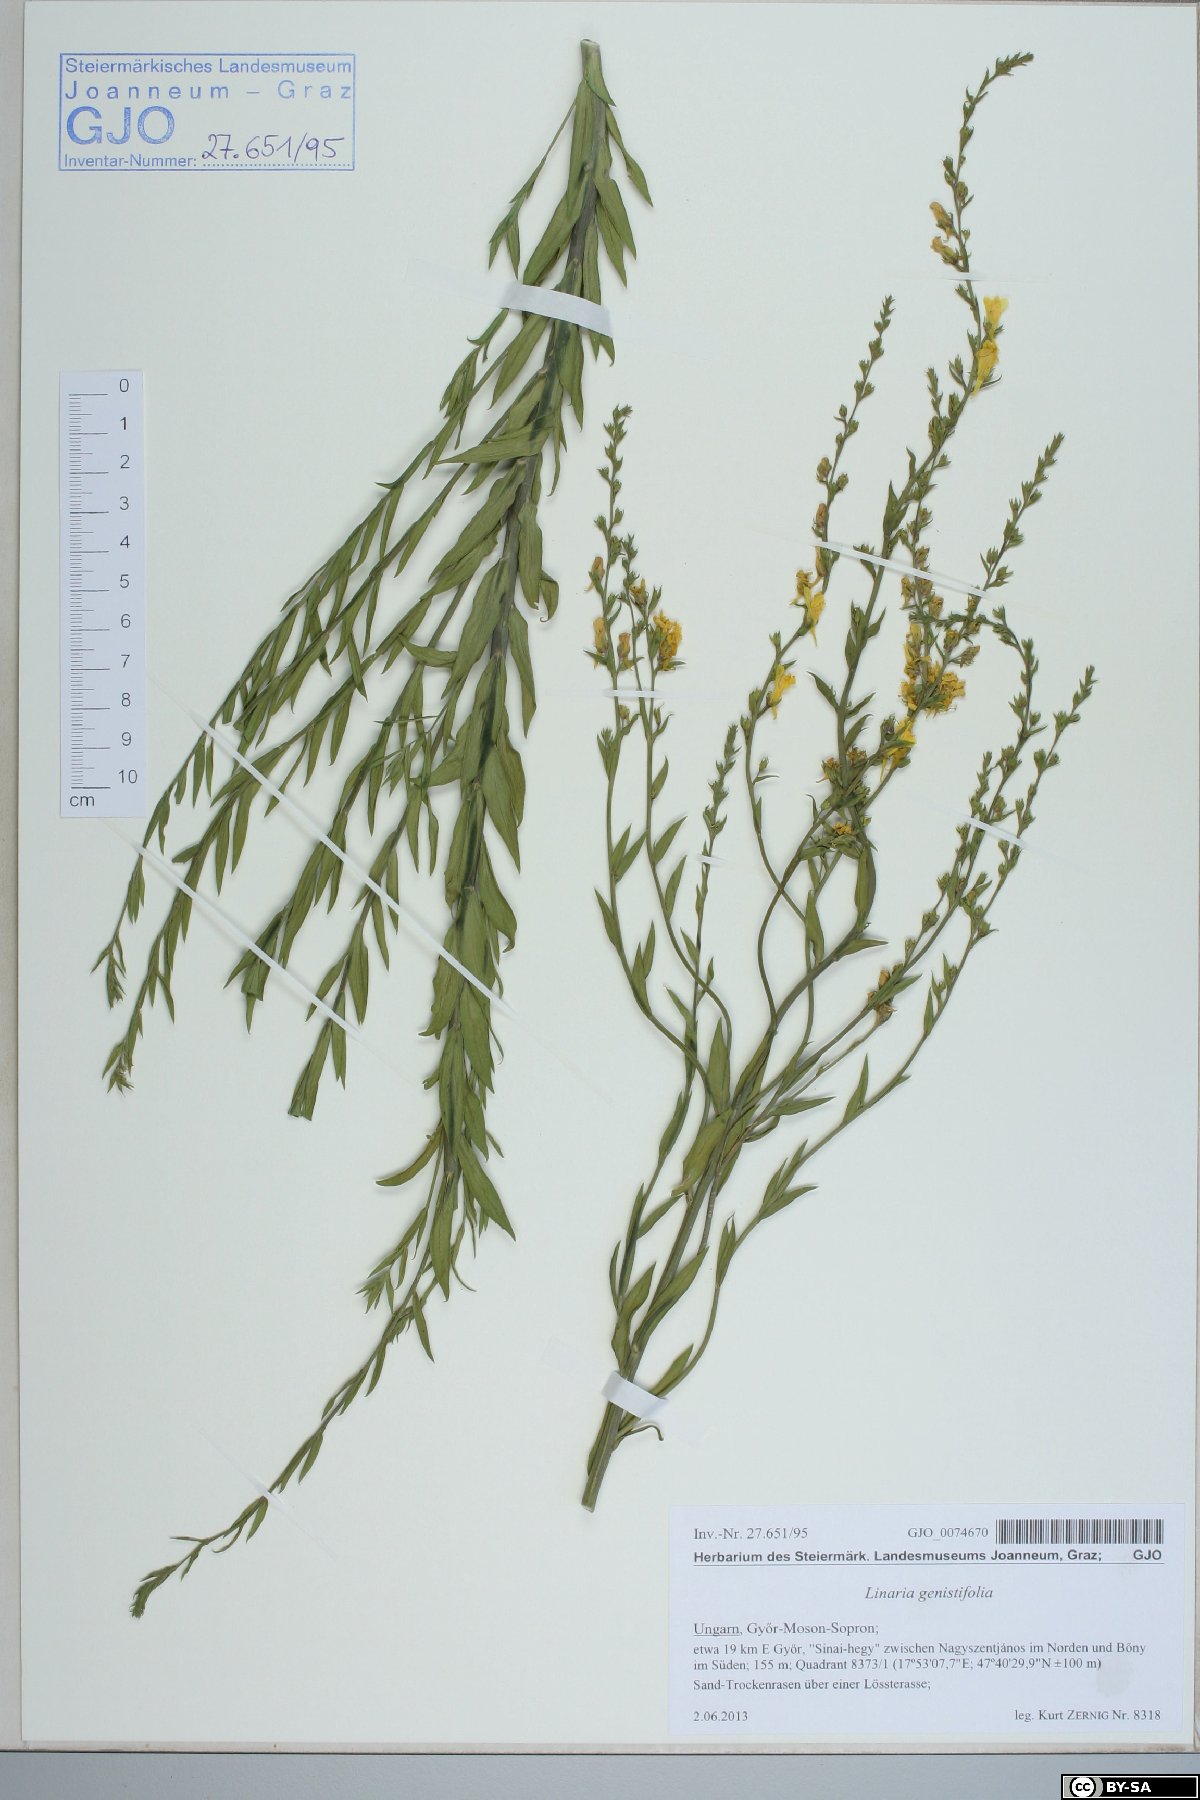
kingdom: Plantae
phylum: Tracheophyta
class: Magnoliopsida
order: Lamiales
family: Plantaginaceae
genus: Linaria
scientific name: Linaria genistifolia
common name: Broomleaf toadflax
